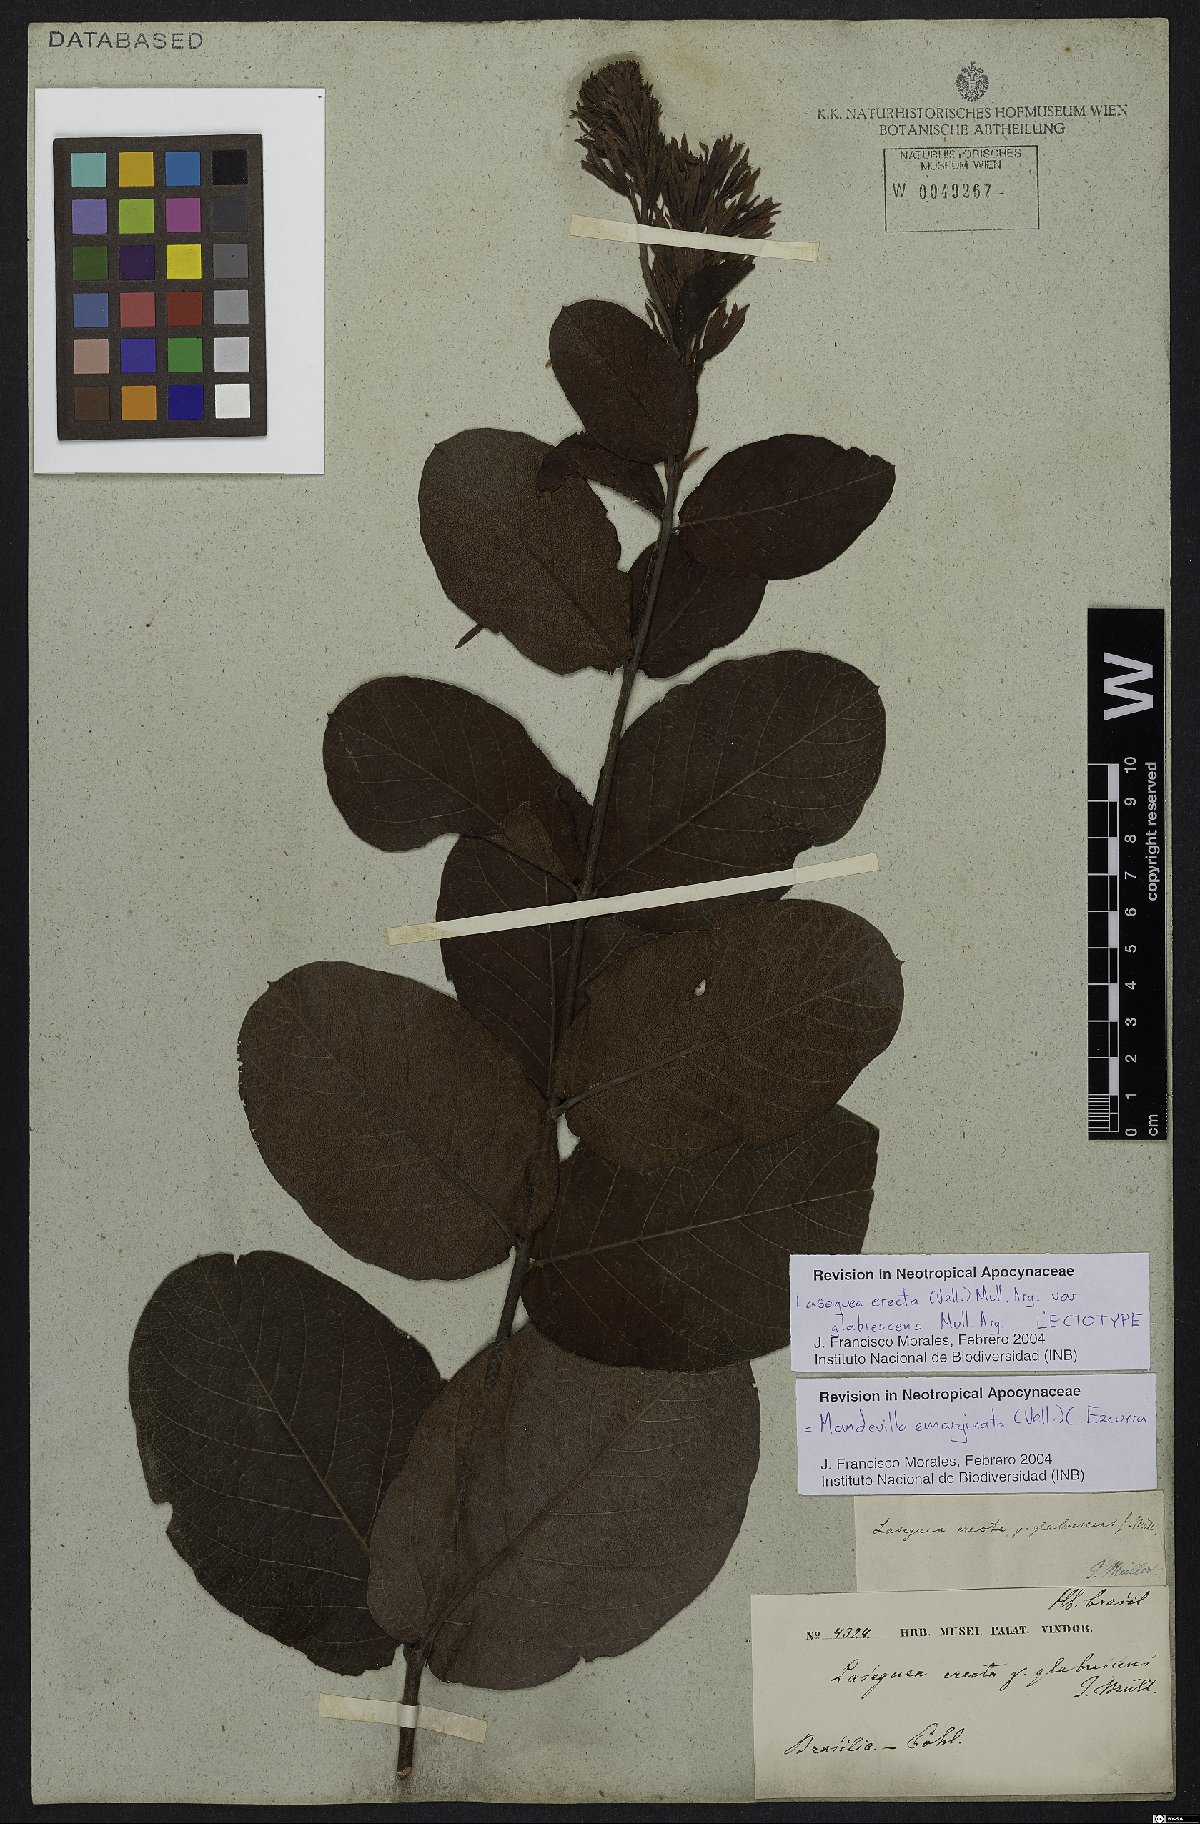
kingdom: Plantae
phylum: Tracheophyta
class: Magnoliopsida
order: Gentianales
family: Apocynaceae
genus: Mandevilla
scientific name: Mandevilla emarginata
